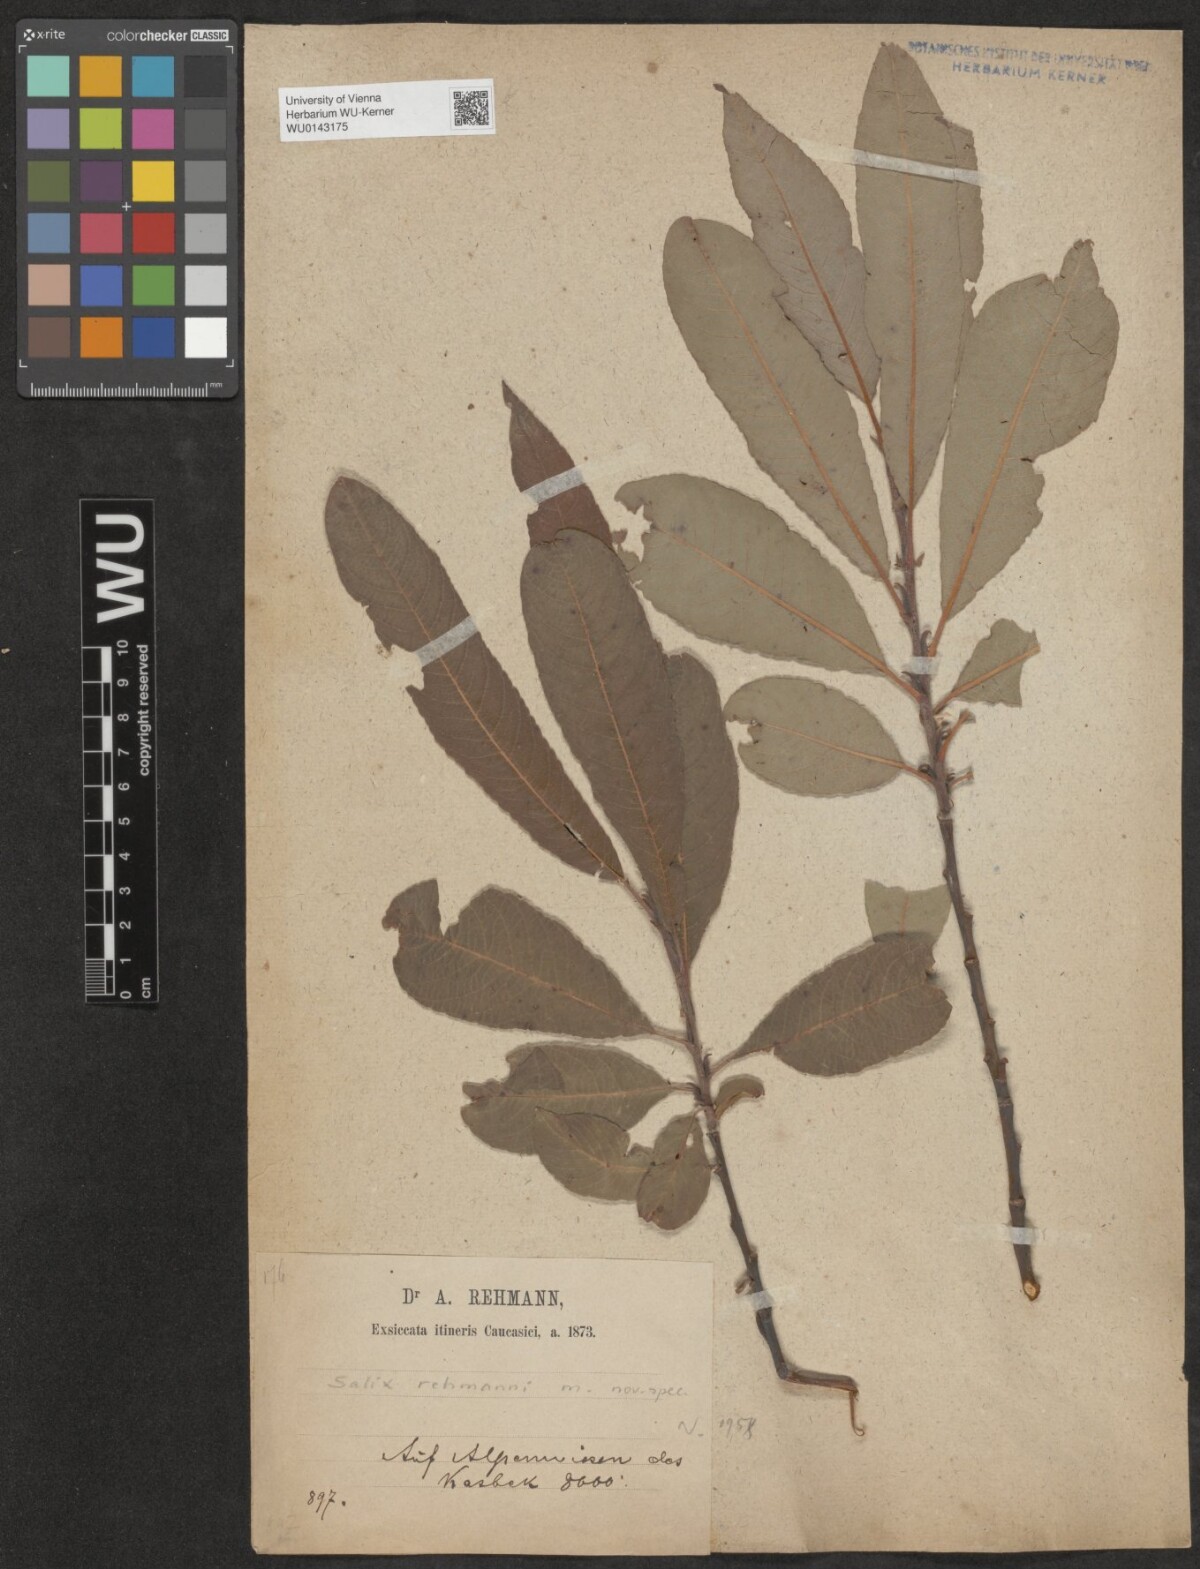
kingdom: Plantae
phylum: Tracheophyta
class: Magnoliopsida
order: Malpighiales
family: Salicaceae
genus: Salix
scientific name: Salix rehmanii
